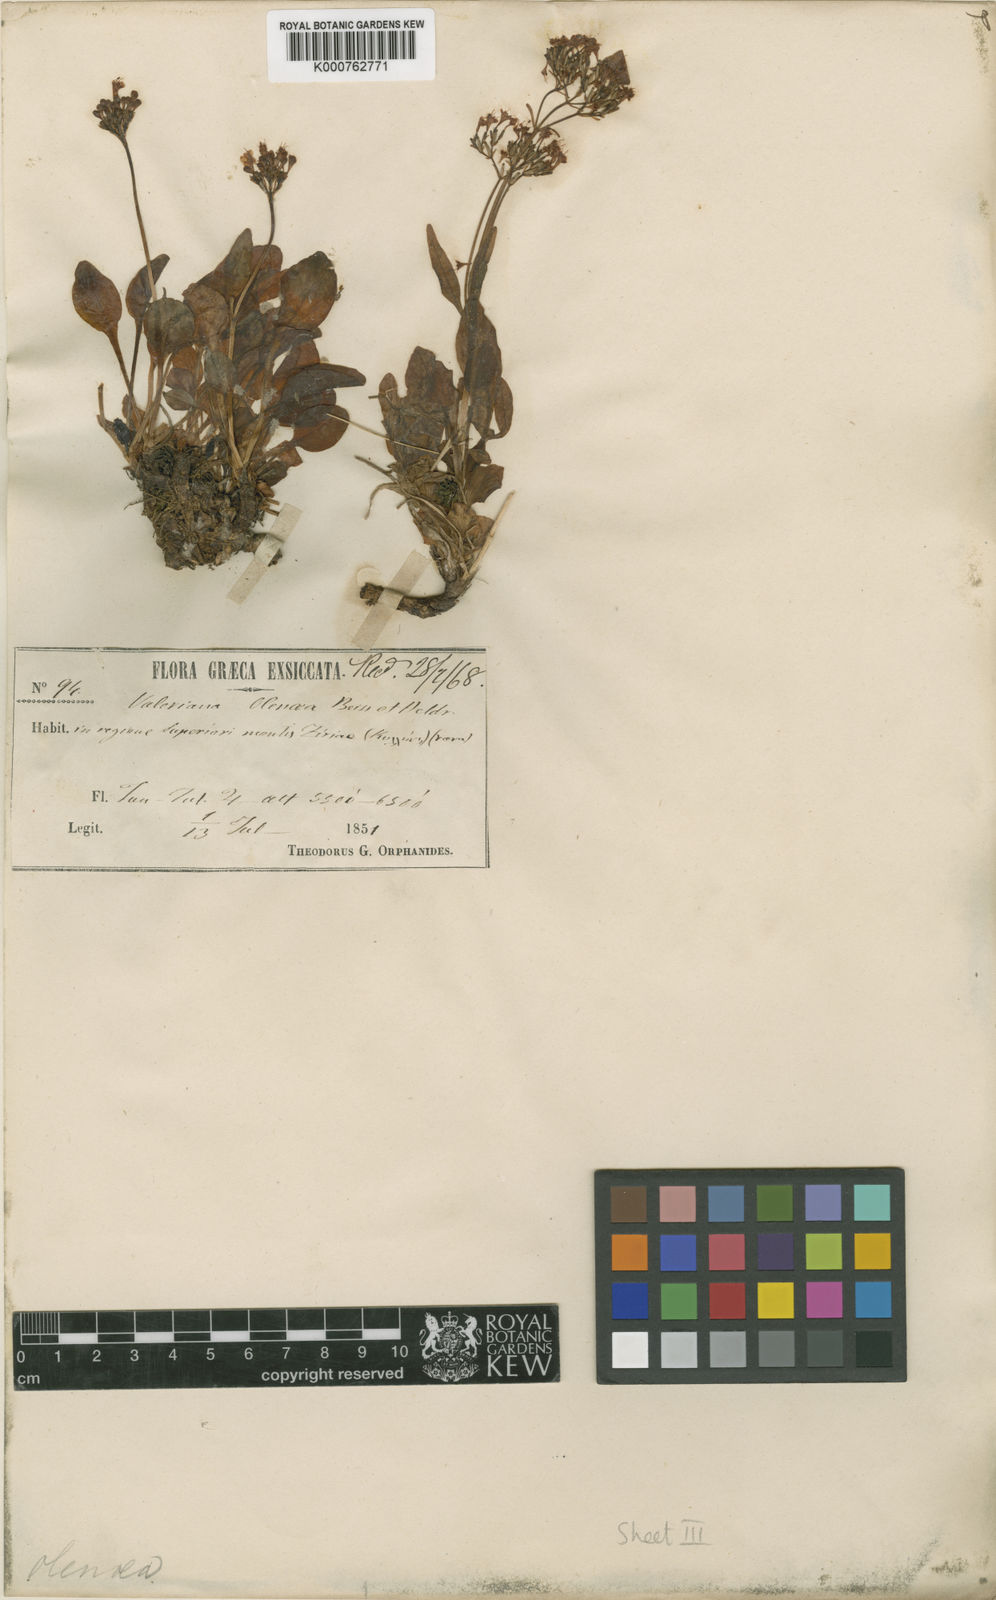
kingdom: Plantae
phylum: Tracheophyta
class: Magnoliopsida
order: Dipsacales
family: Caprifoliaceae
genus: Valeriana
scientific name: Valeriana olenaea
